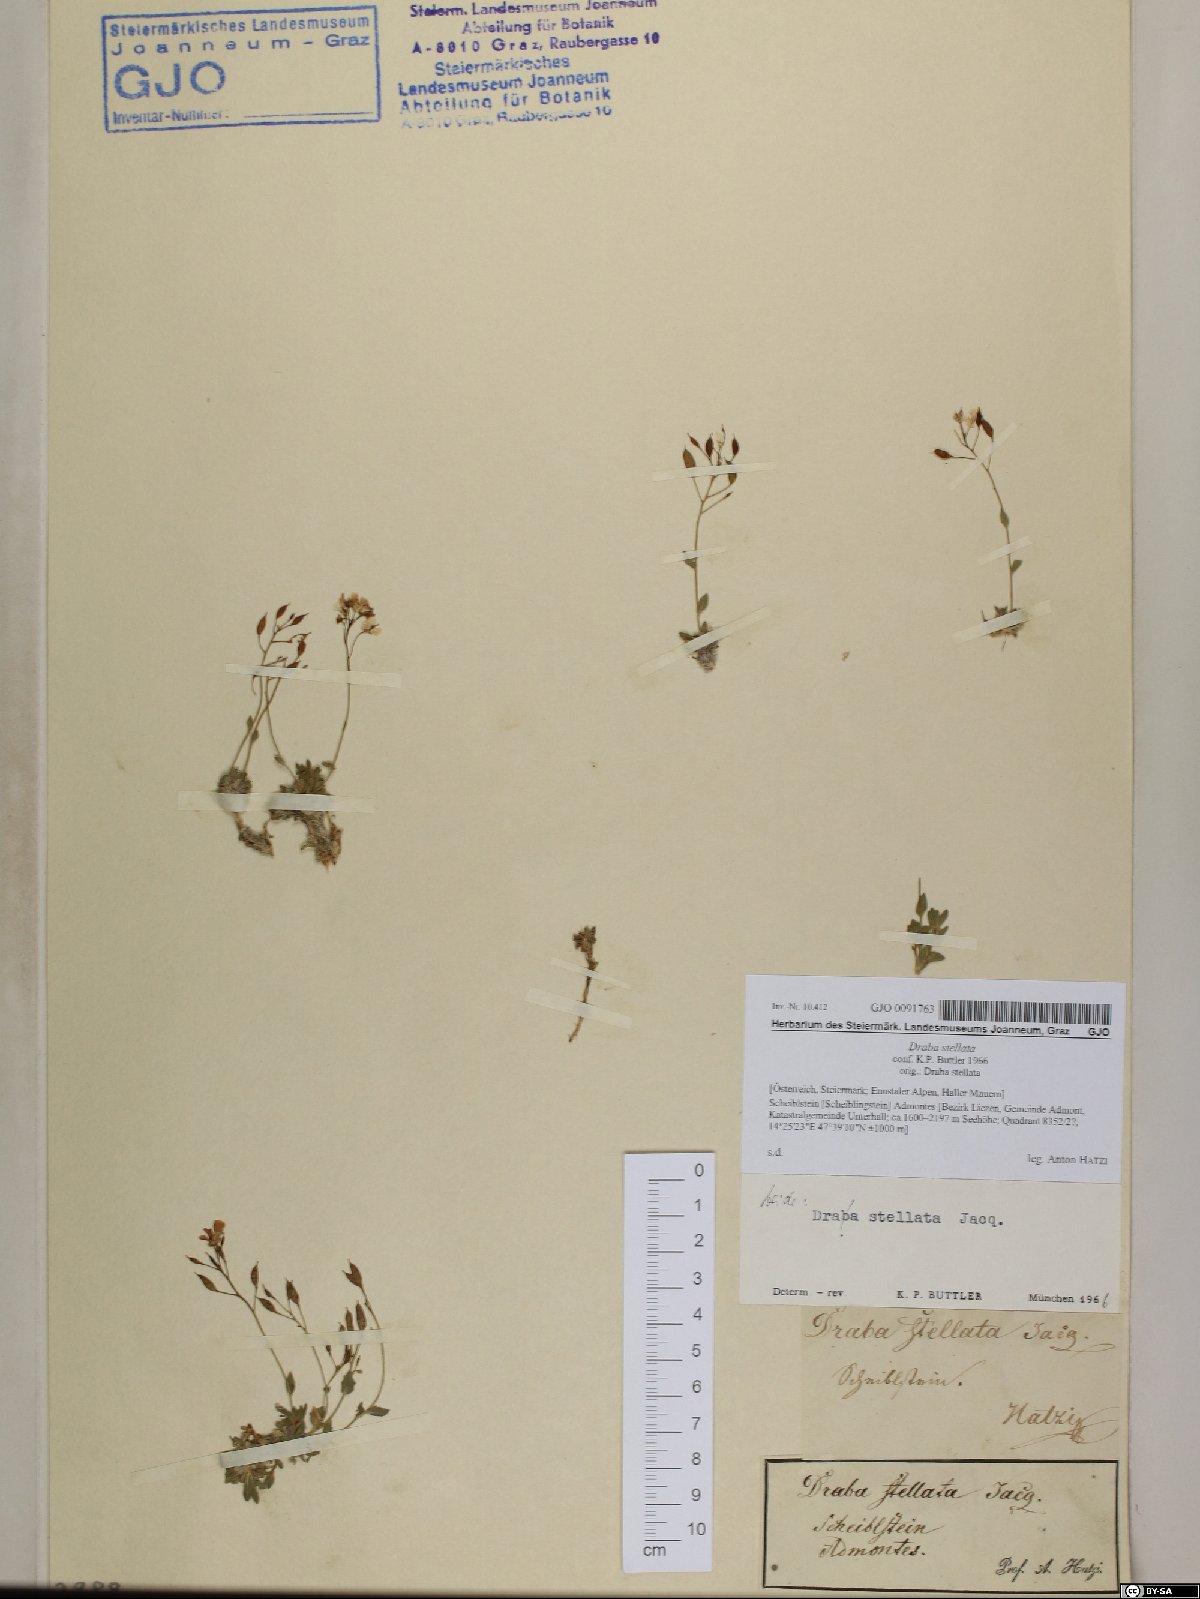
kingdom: Plantae
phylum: Tracheophyta
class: Magnoliopsida
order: Brassicales
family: Brassicaceae
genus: Draba
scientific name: Draba stellata
